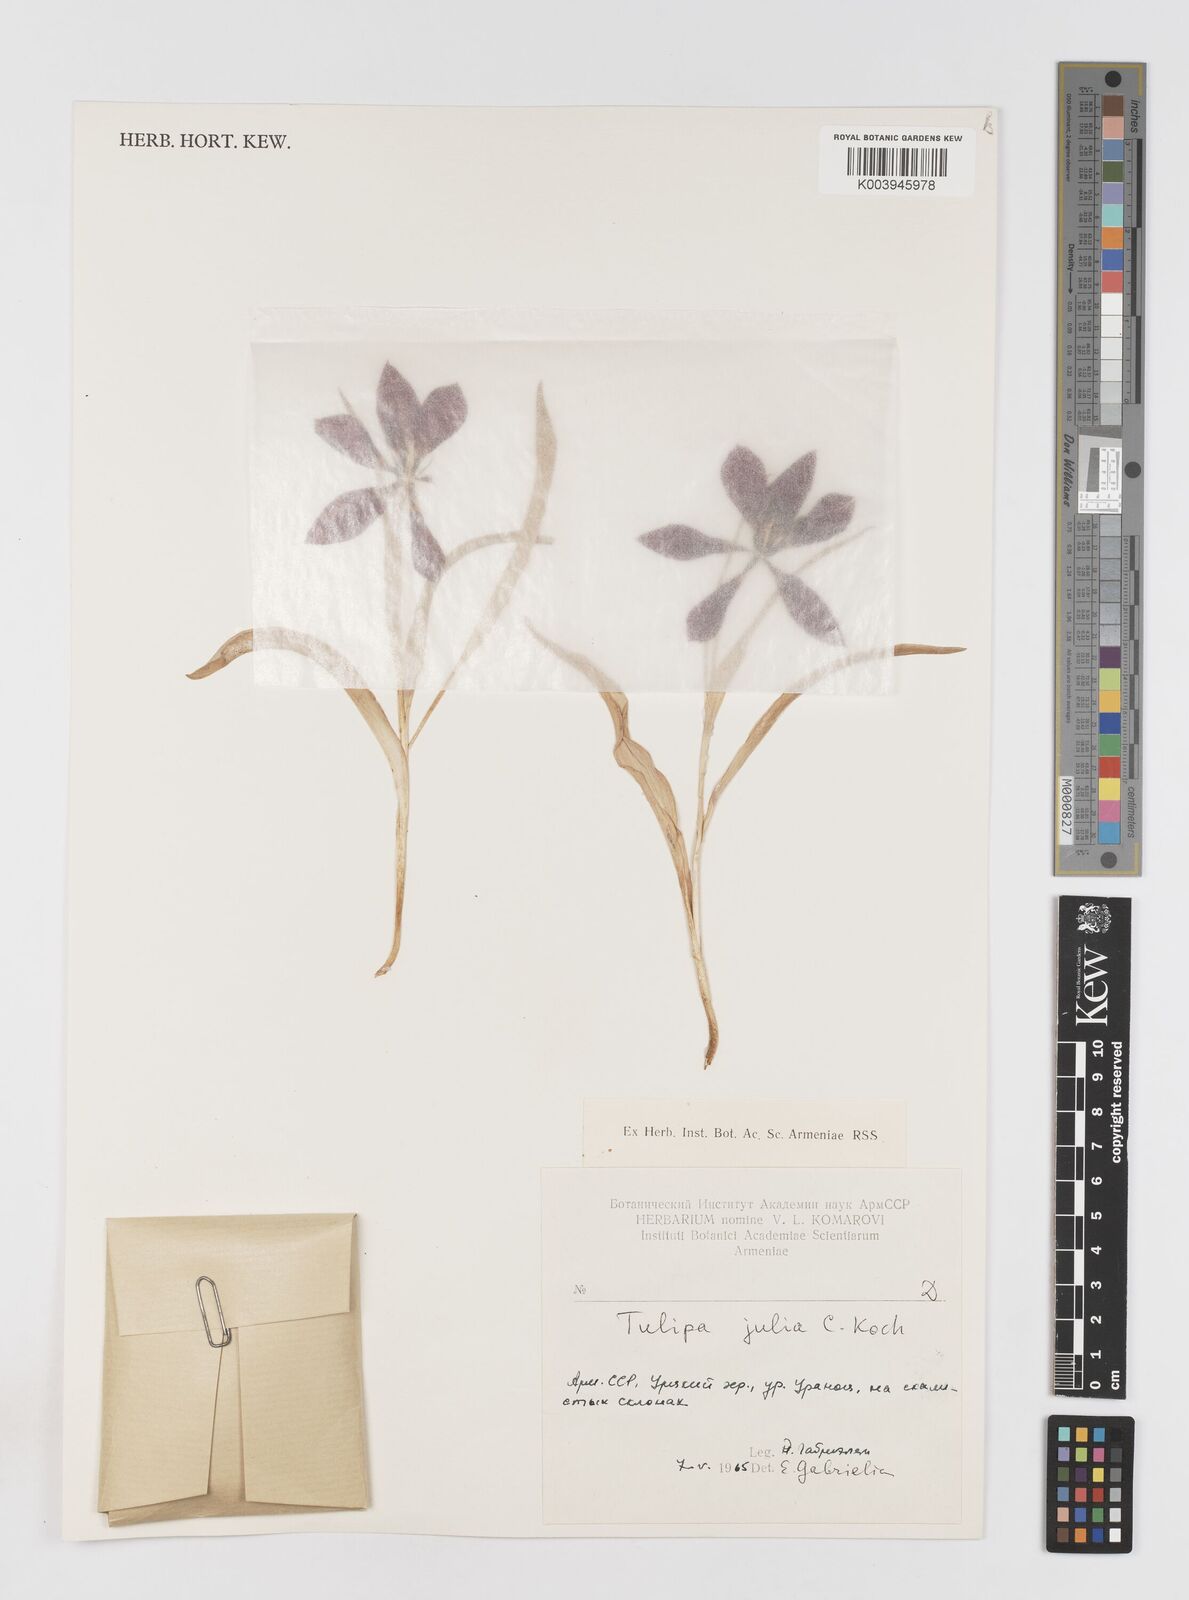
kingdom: Plantae
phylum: Tracheophyta
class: Liliopsida
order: Liliales
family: Liliaceae
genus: Tulipa
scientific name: Tulipa julia
